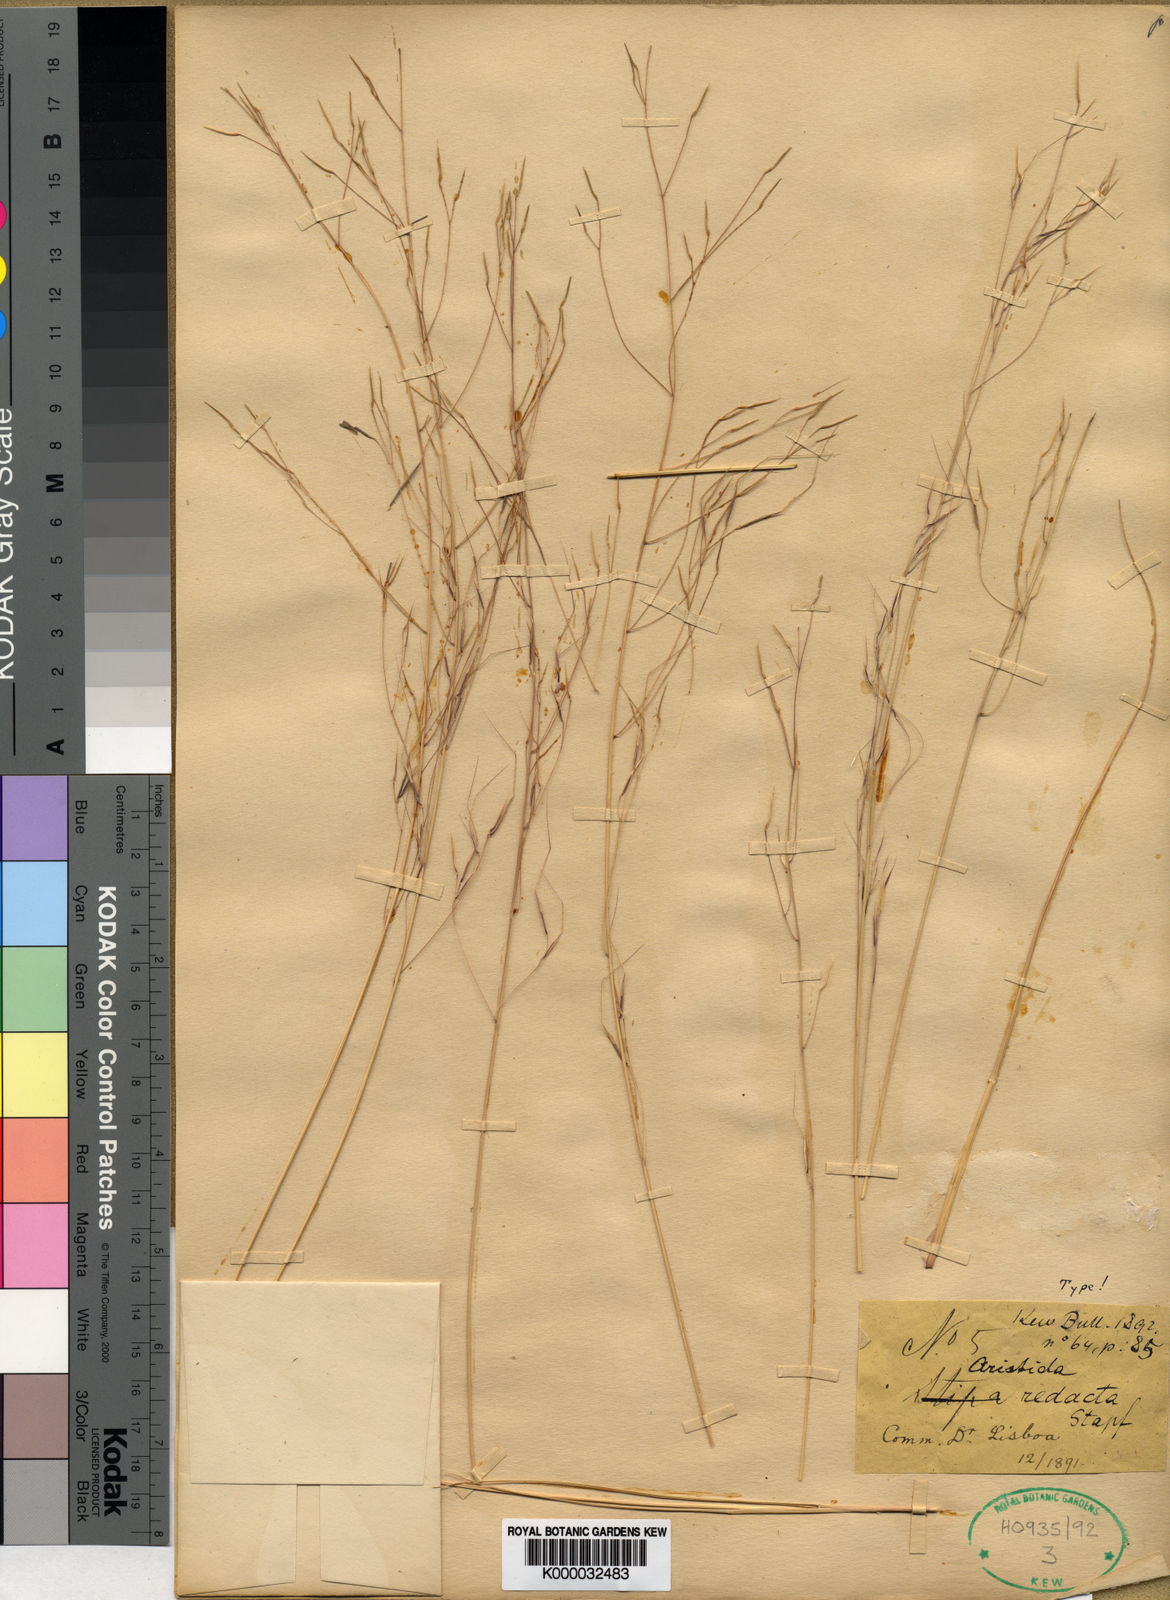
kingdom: Plantae
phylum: Tracheophyta
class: Liliopsida
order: Poales
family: Poaceae
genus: Aristida
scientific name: Aristida redacta
